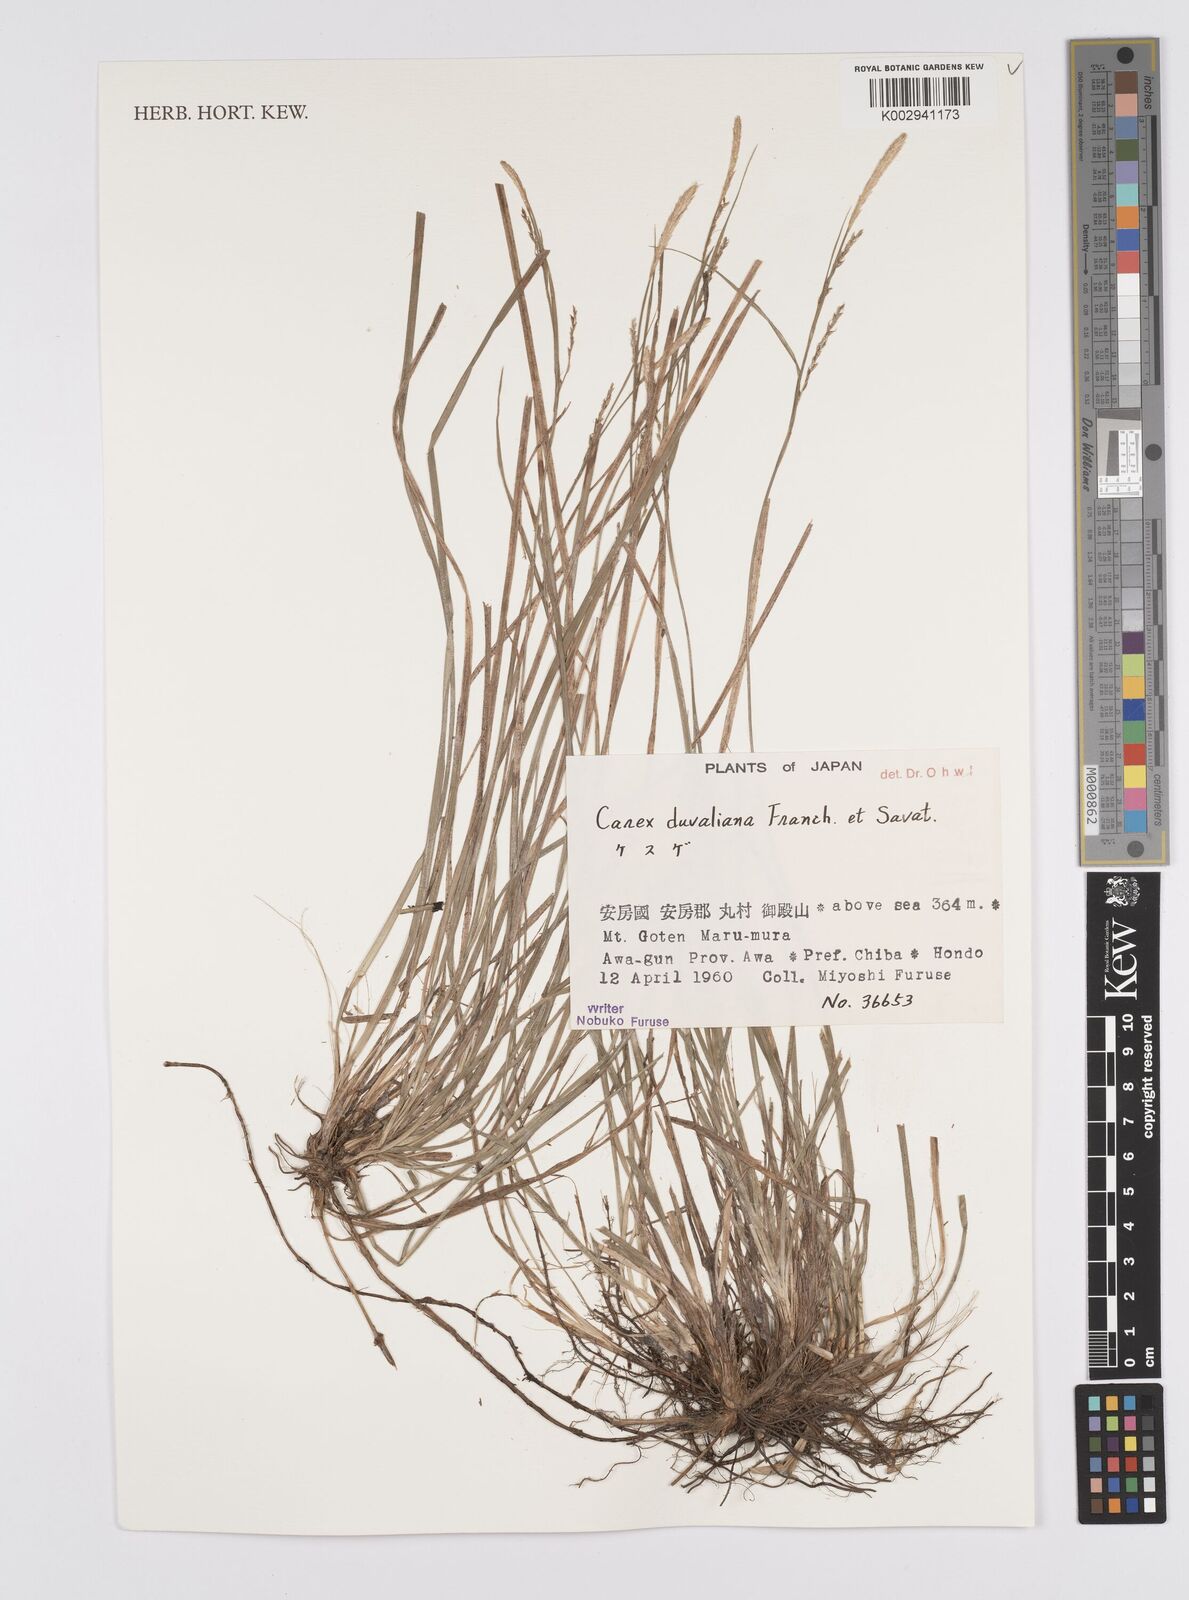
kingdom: Plantae
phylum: Tracheophyta
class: Liliopsida
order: Poales
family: Cyperaceae
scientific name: Cyperaceae
